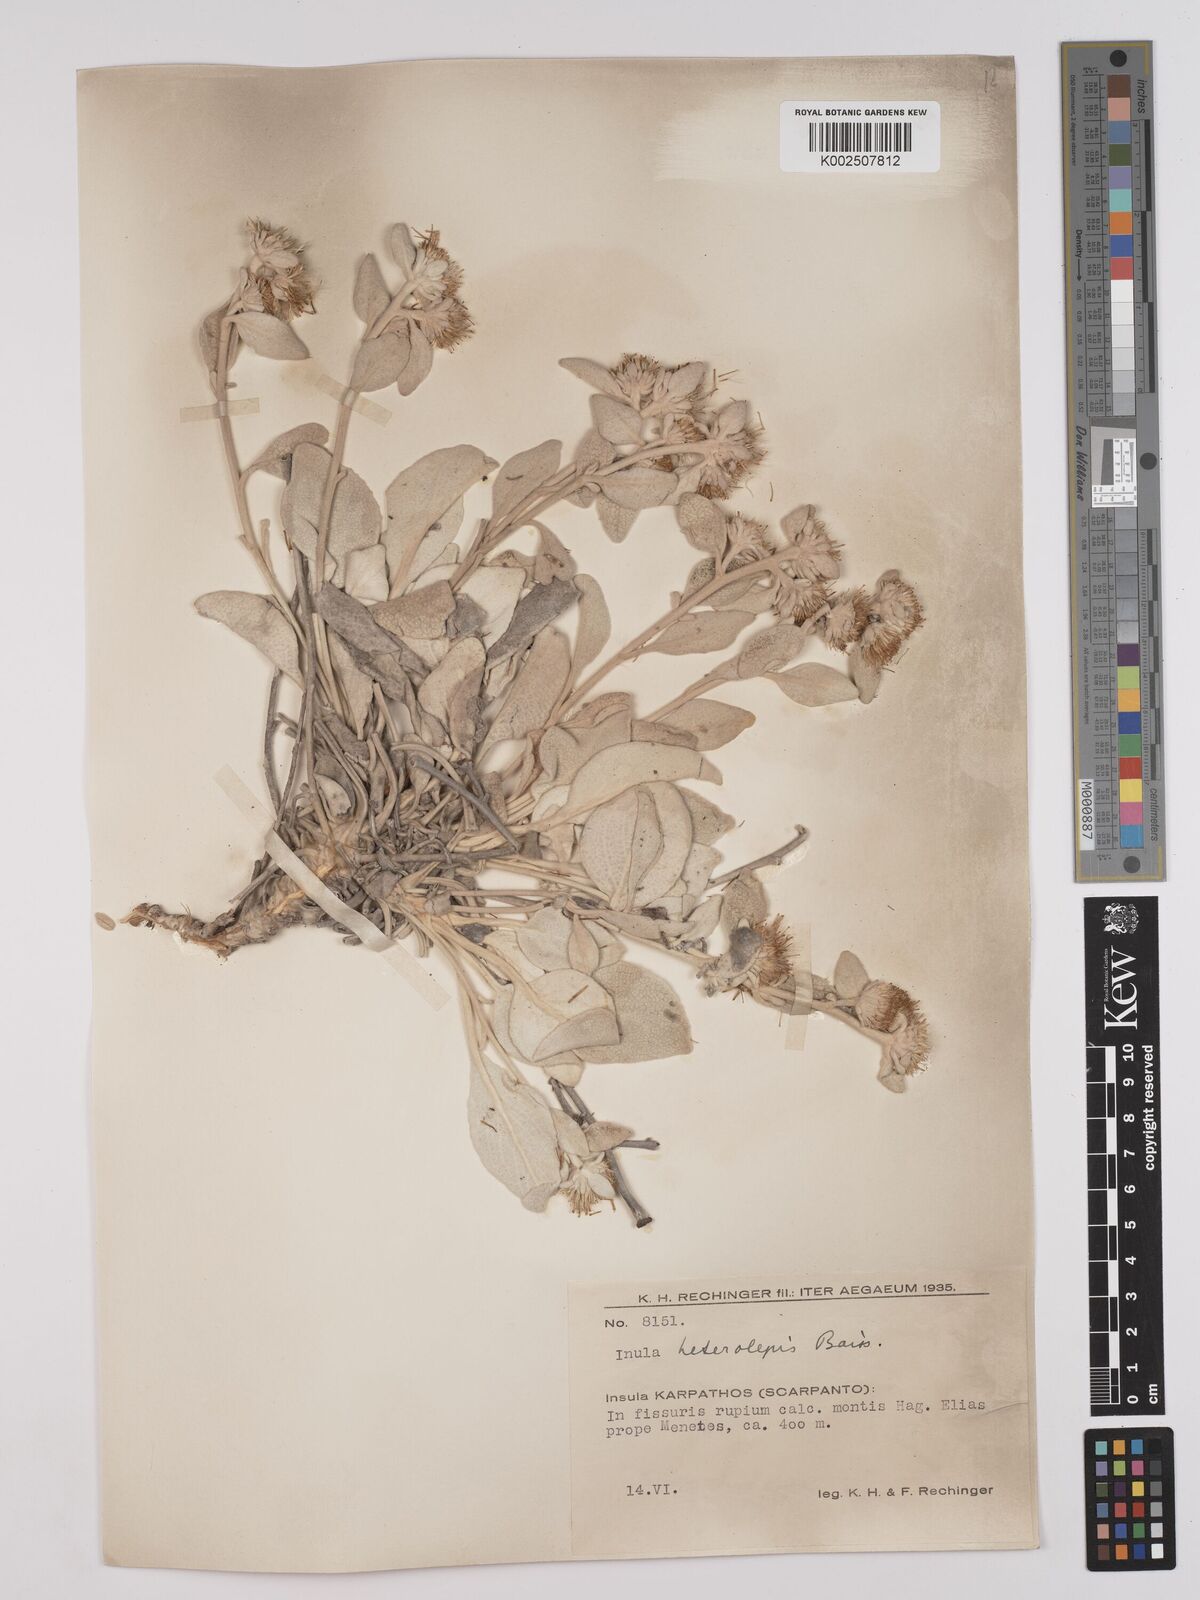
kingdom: Plantae
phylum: Tracheophyta
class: Magnoliopsida
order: Asterales
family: Asteraceae
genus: Pentanema
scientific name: Pentanema verbascifolium
